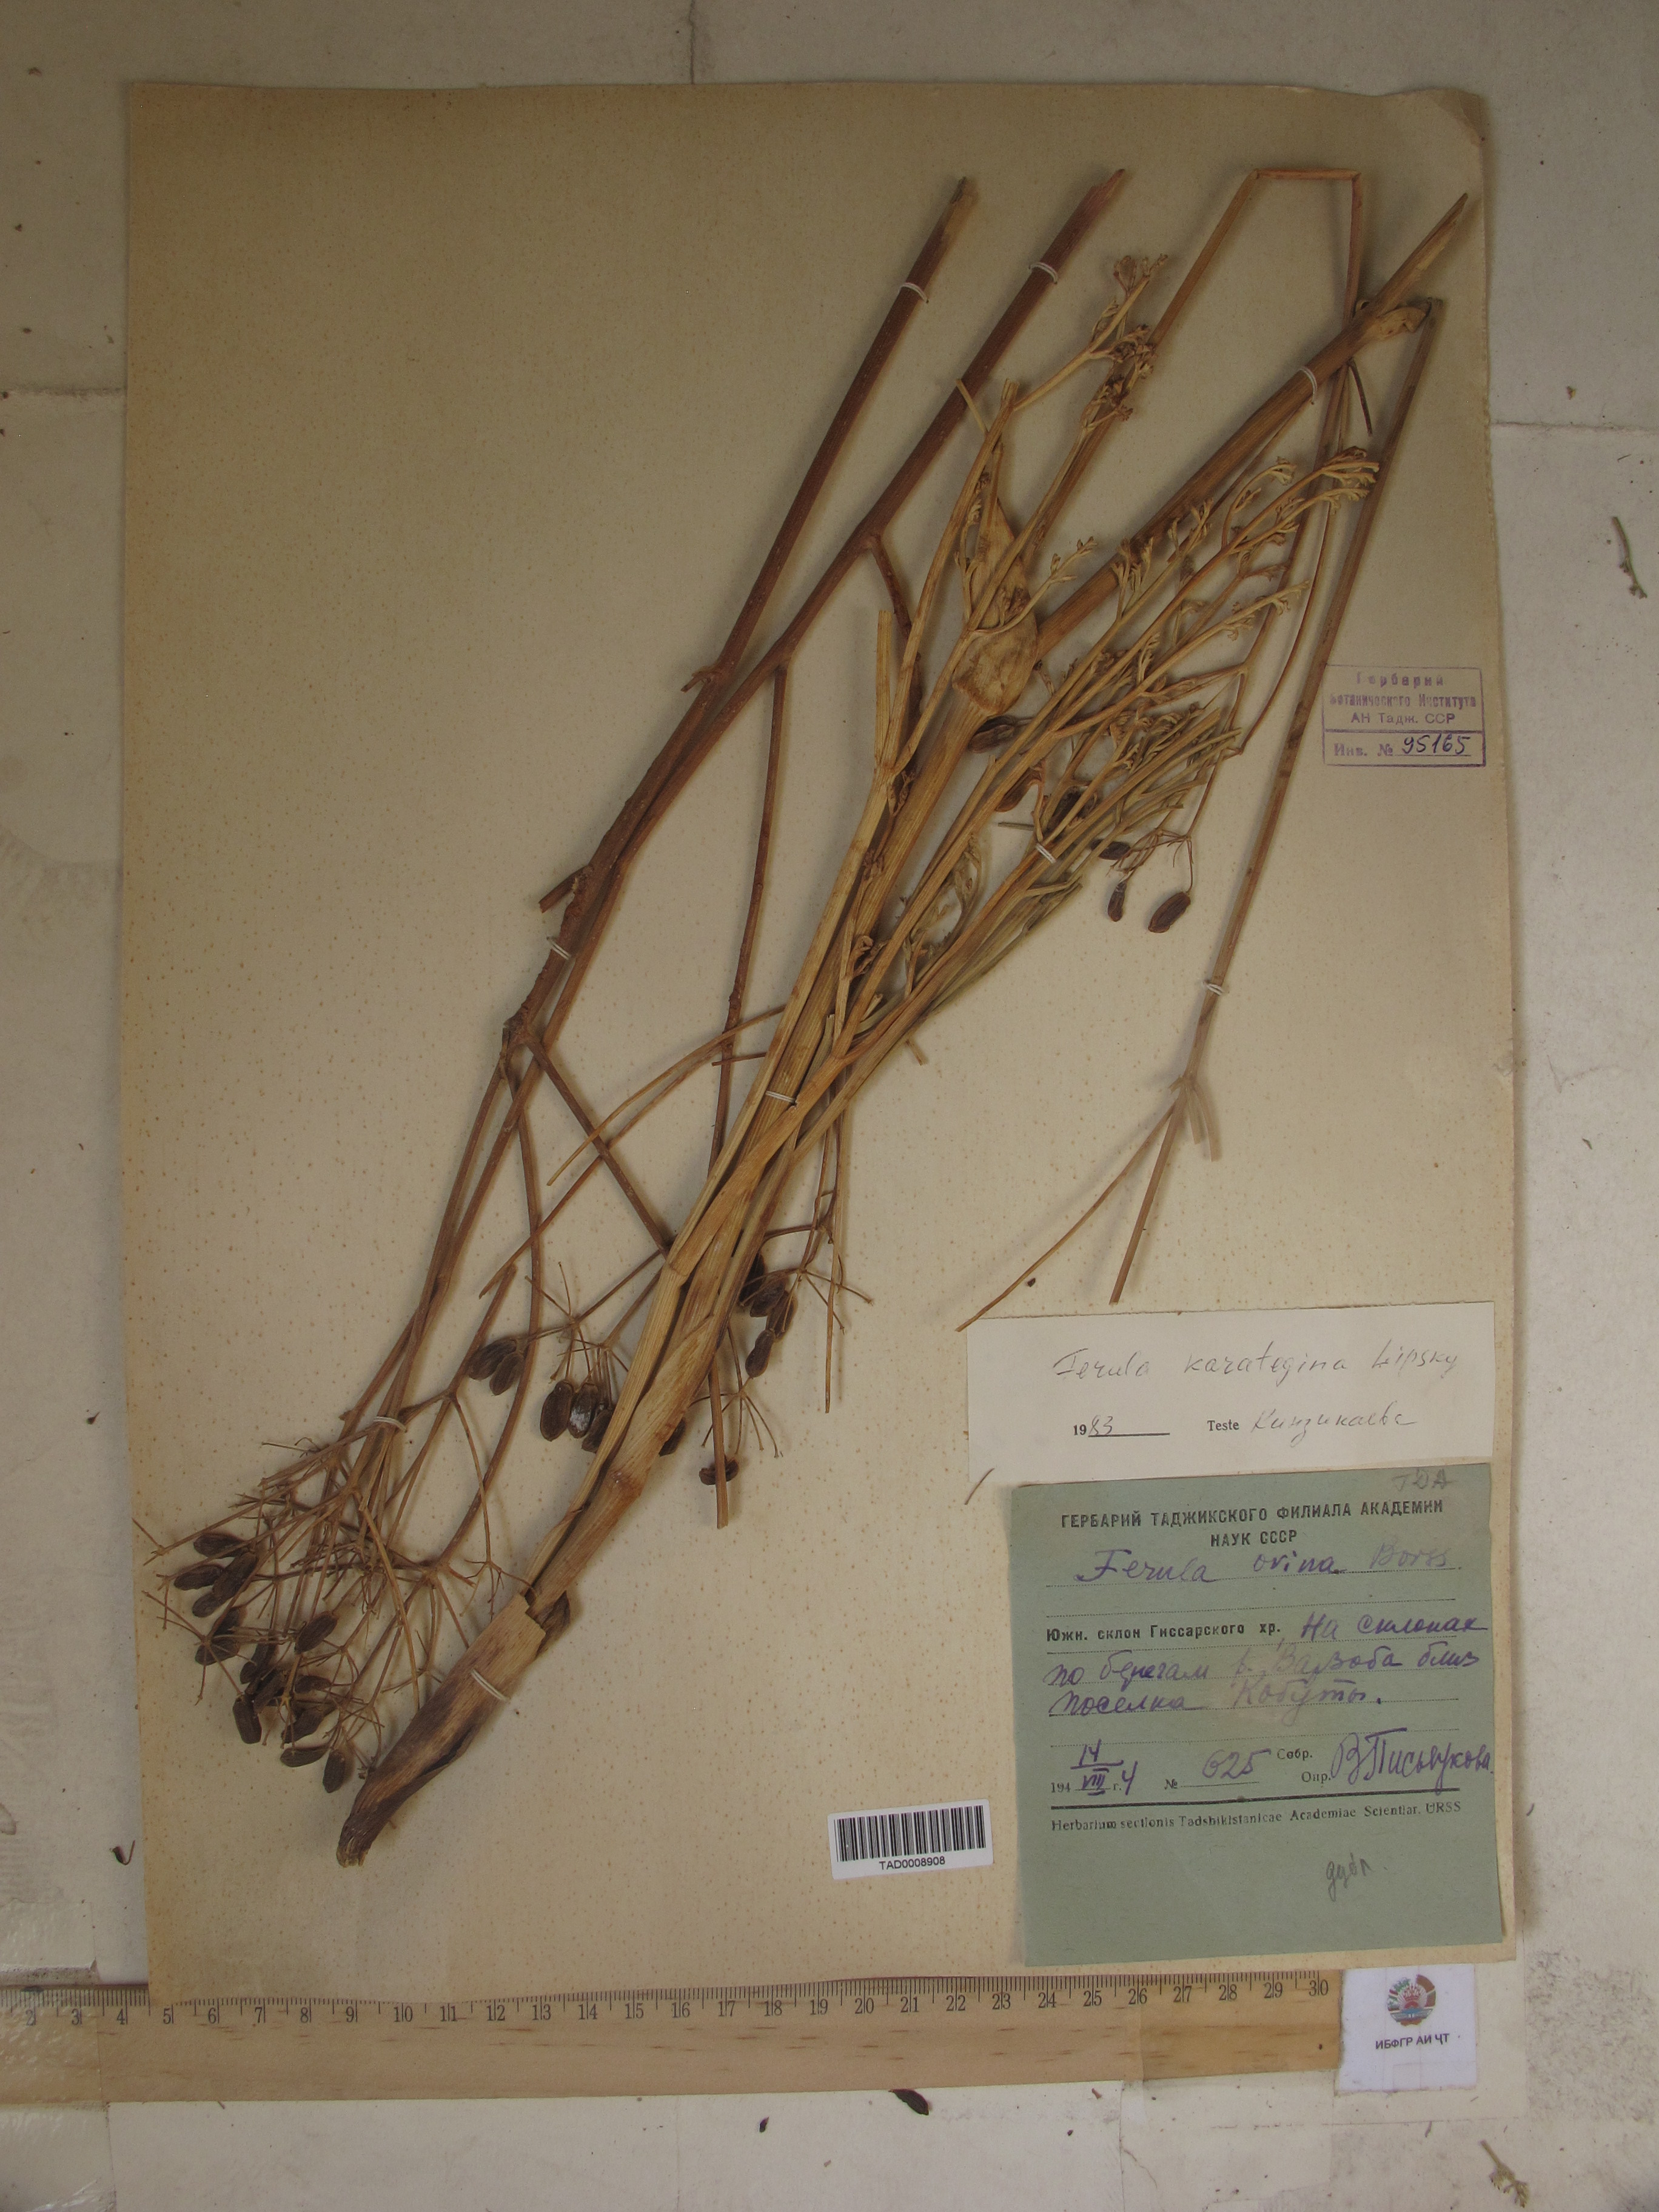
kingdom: Plantae
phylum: Tracheophyta
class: Magnoliopsida
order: Apiales
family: Apiaceae
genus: Ferula
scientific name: Ferula karategina
